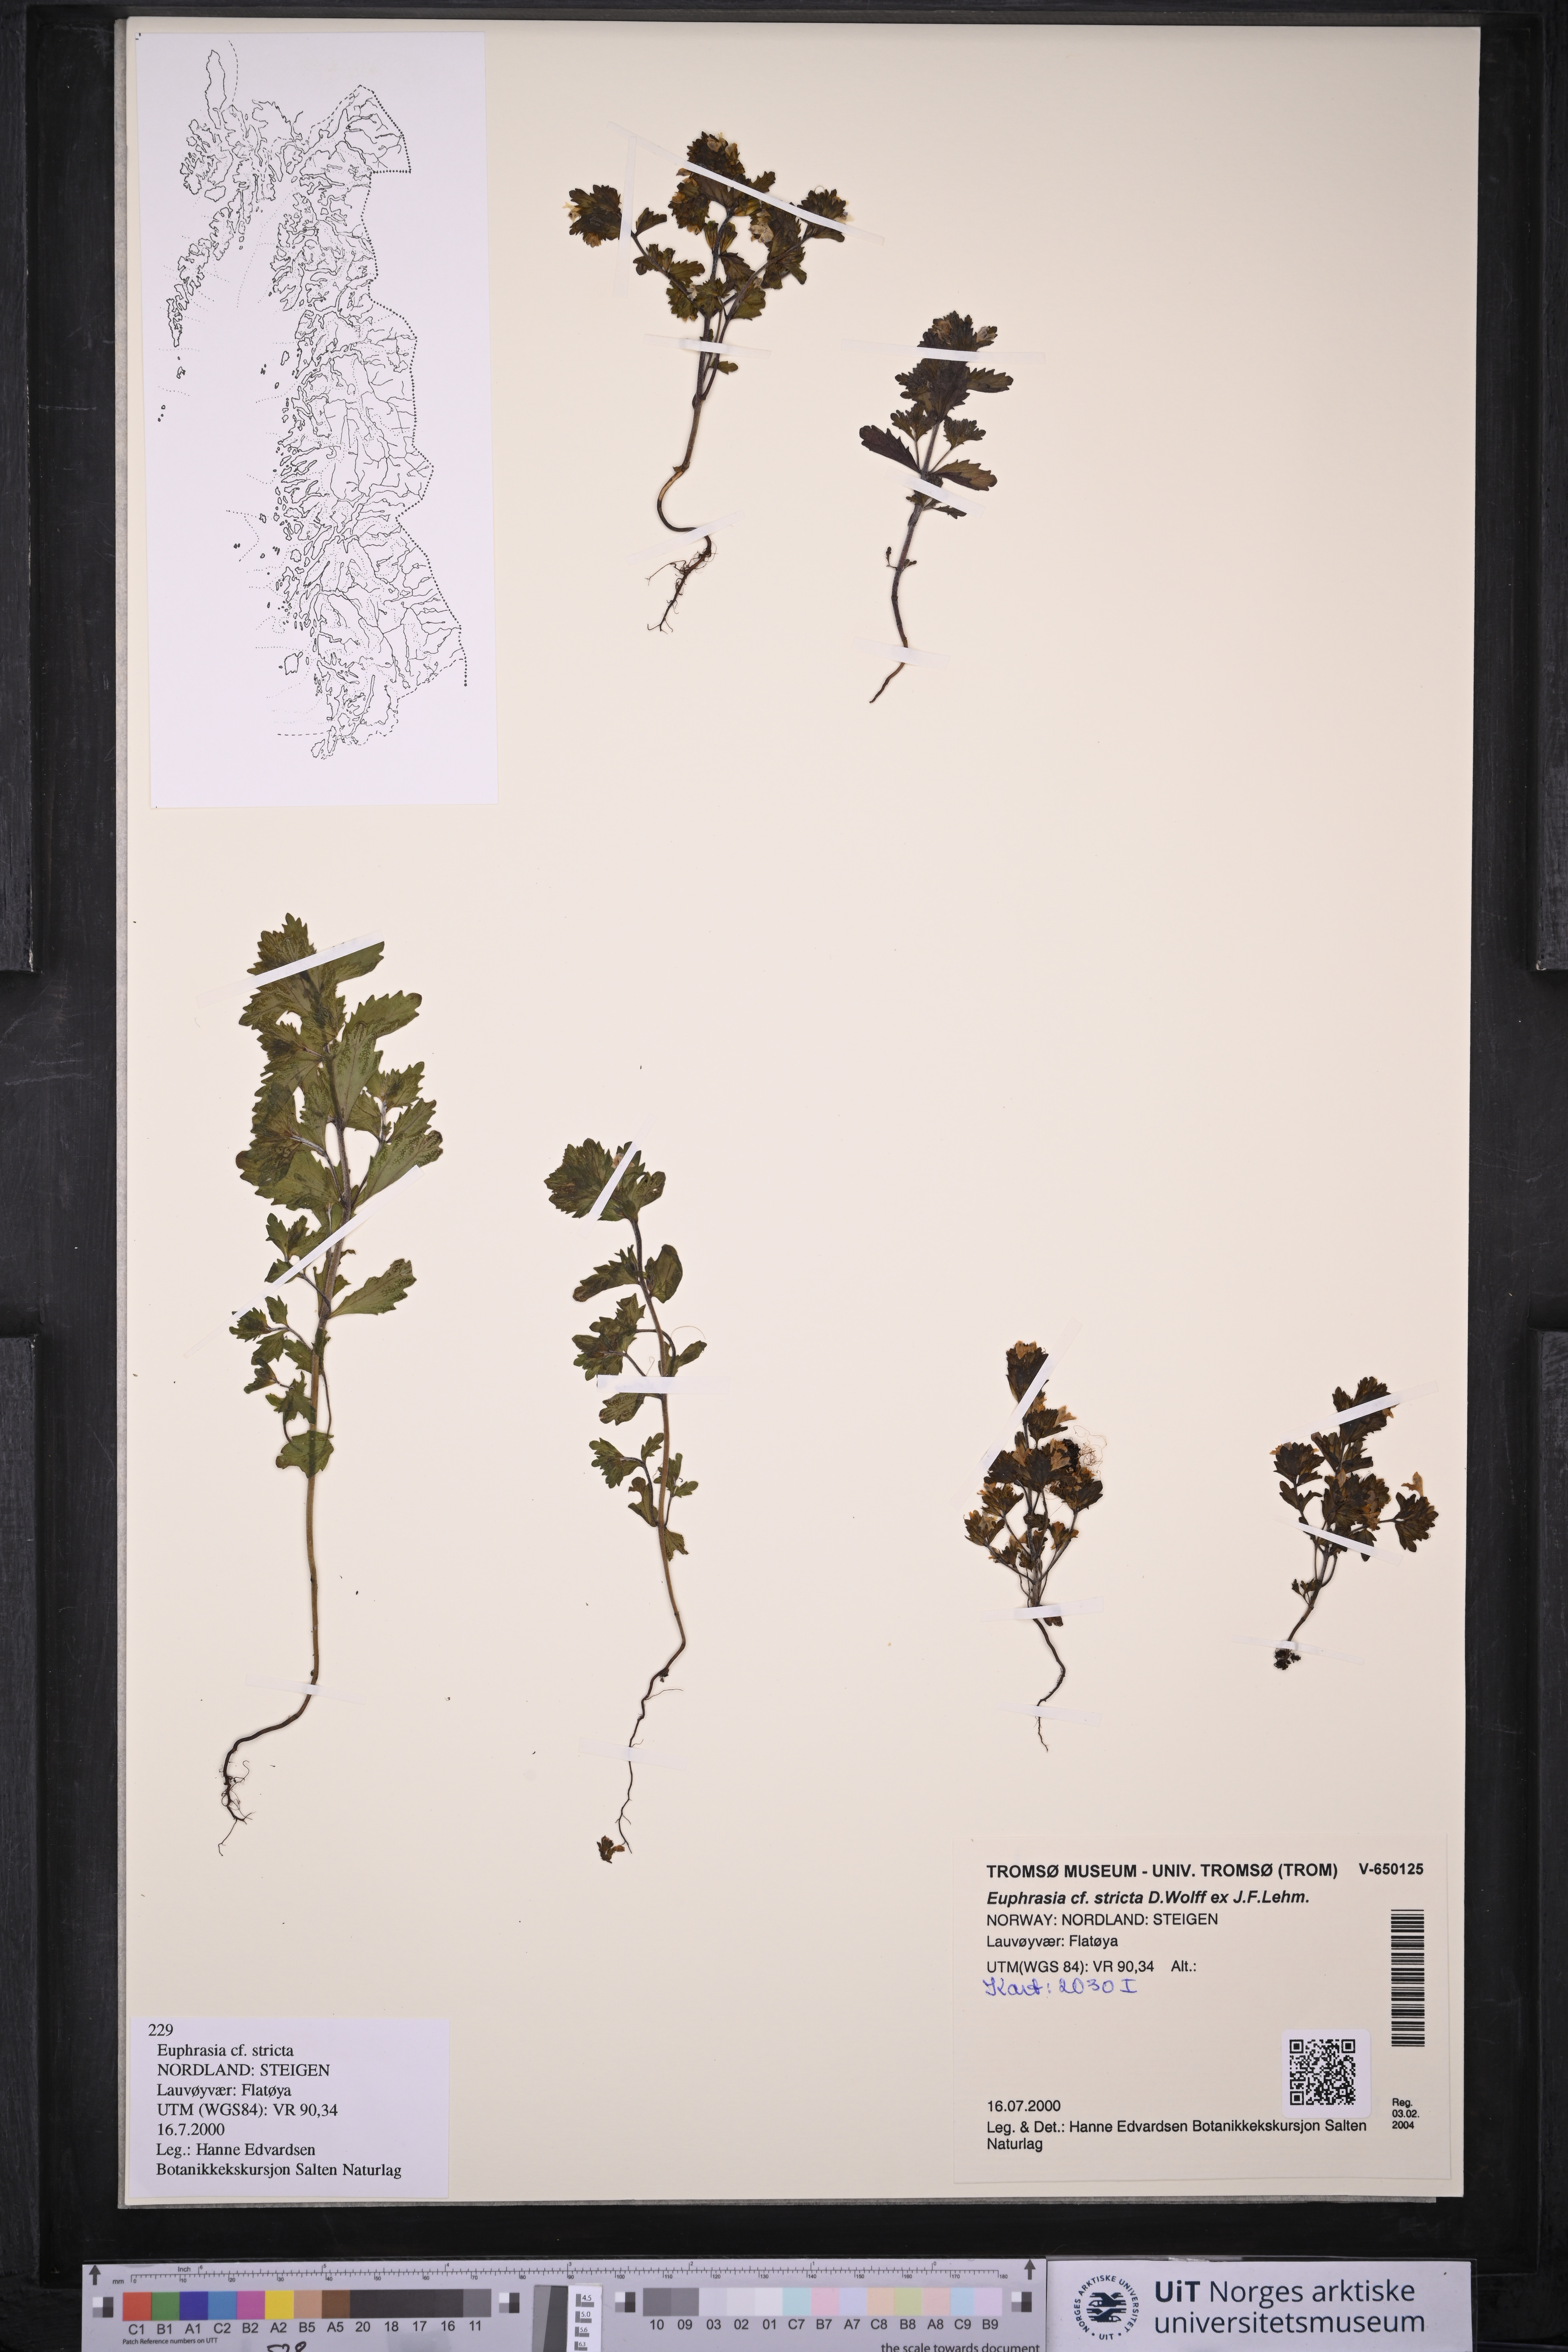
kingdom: Plantae
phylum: Tracheophyta
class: Magnoliopsida
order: Lamiales
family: Orobanchaceae
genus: Euphrasia
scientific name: Euphrasia stricta
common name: Drug eyebright
